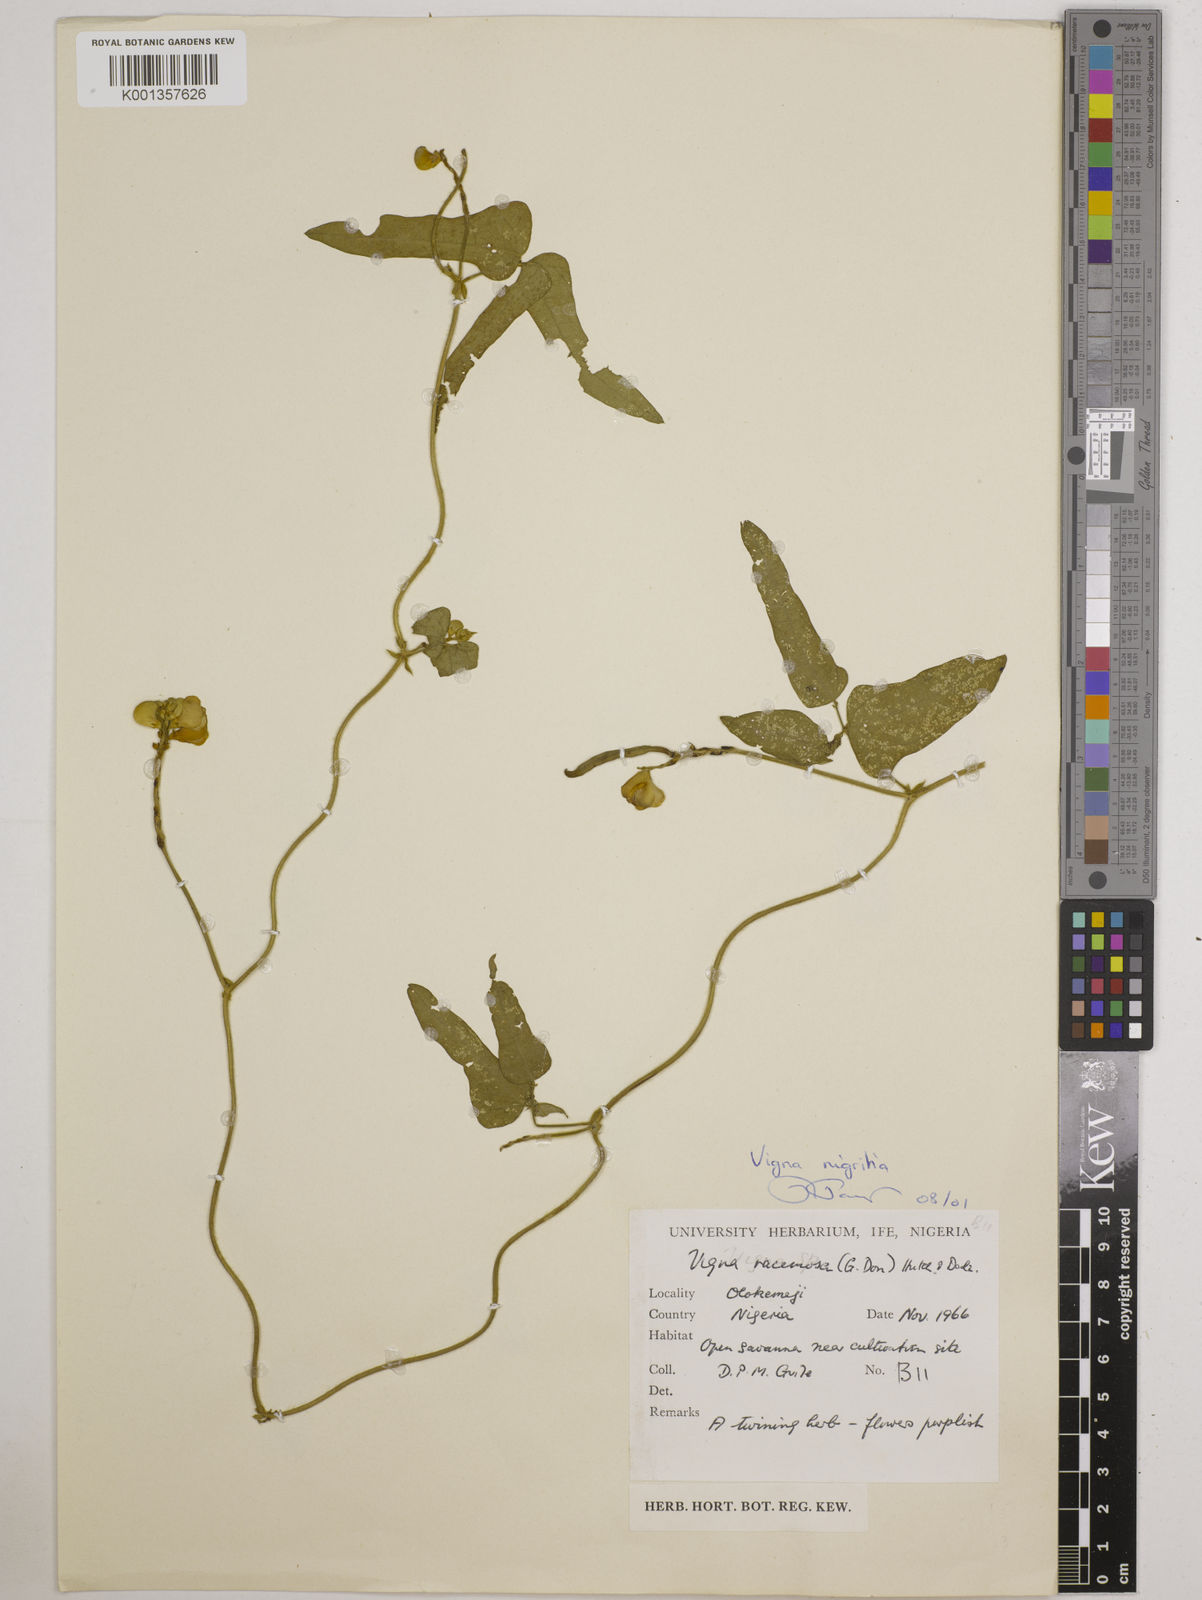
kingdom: Plantae
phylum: Tracheophyta
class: Magnoliopsida
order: Fabales
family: Fabaceae
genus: Vigna
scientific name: Vigna nigritia
